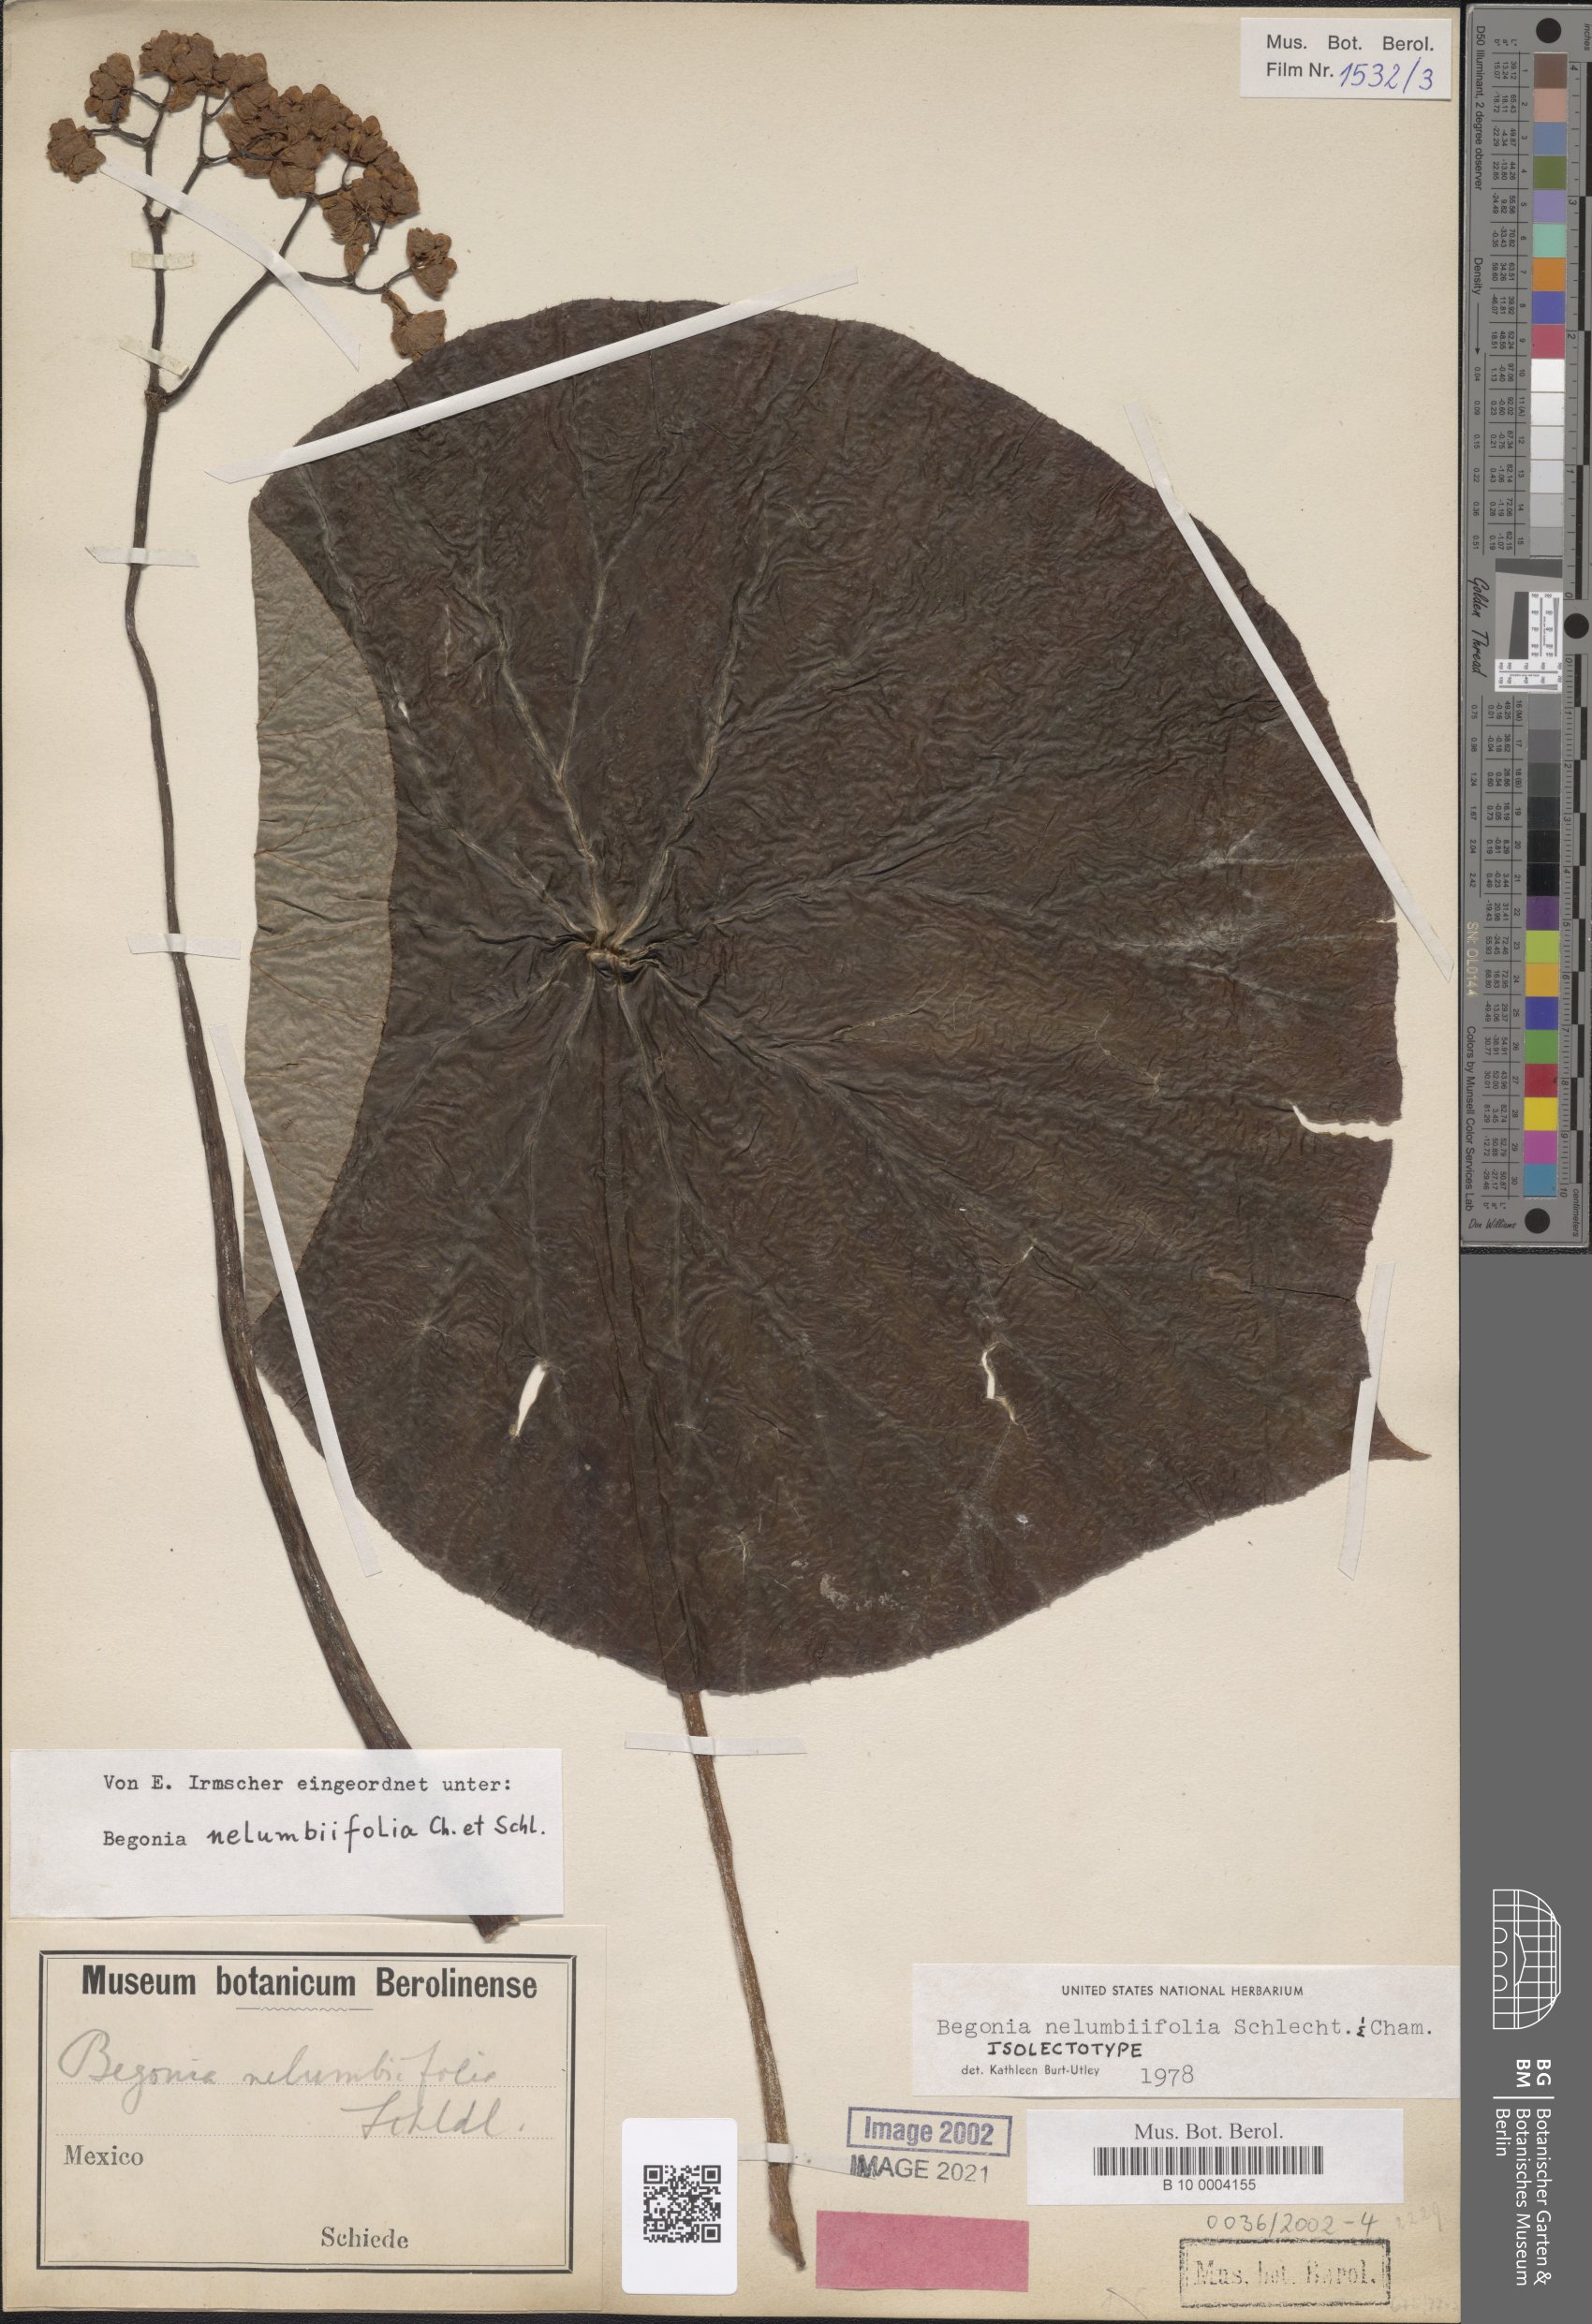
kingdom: Plantae
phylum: Tracheophyta
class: Magnoliopsida
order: Cucurbitales
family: Begoniaceae
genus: Begonia
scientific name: Begonia nelumbiifolia
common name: Lilypad begonia
